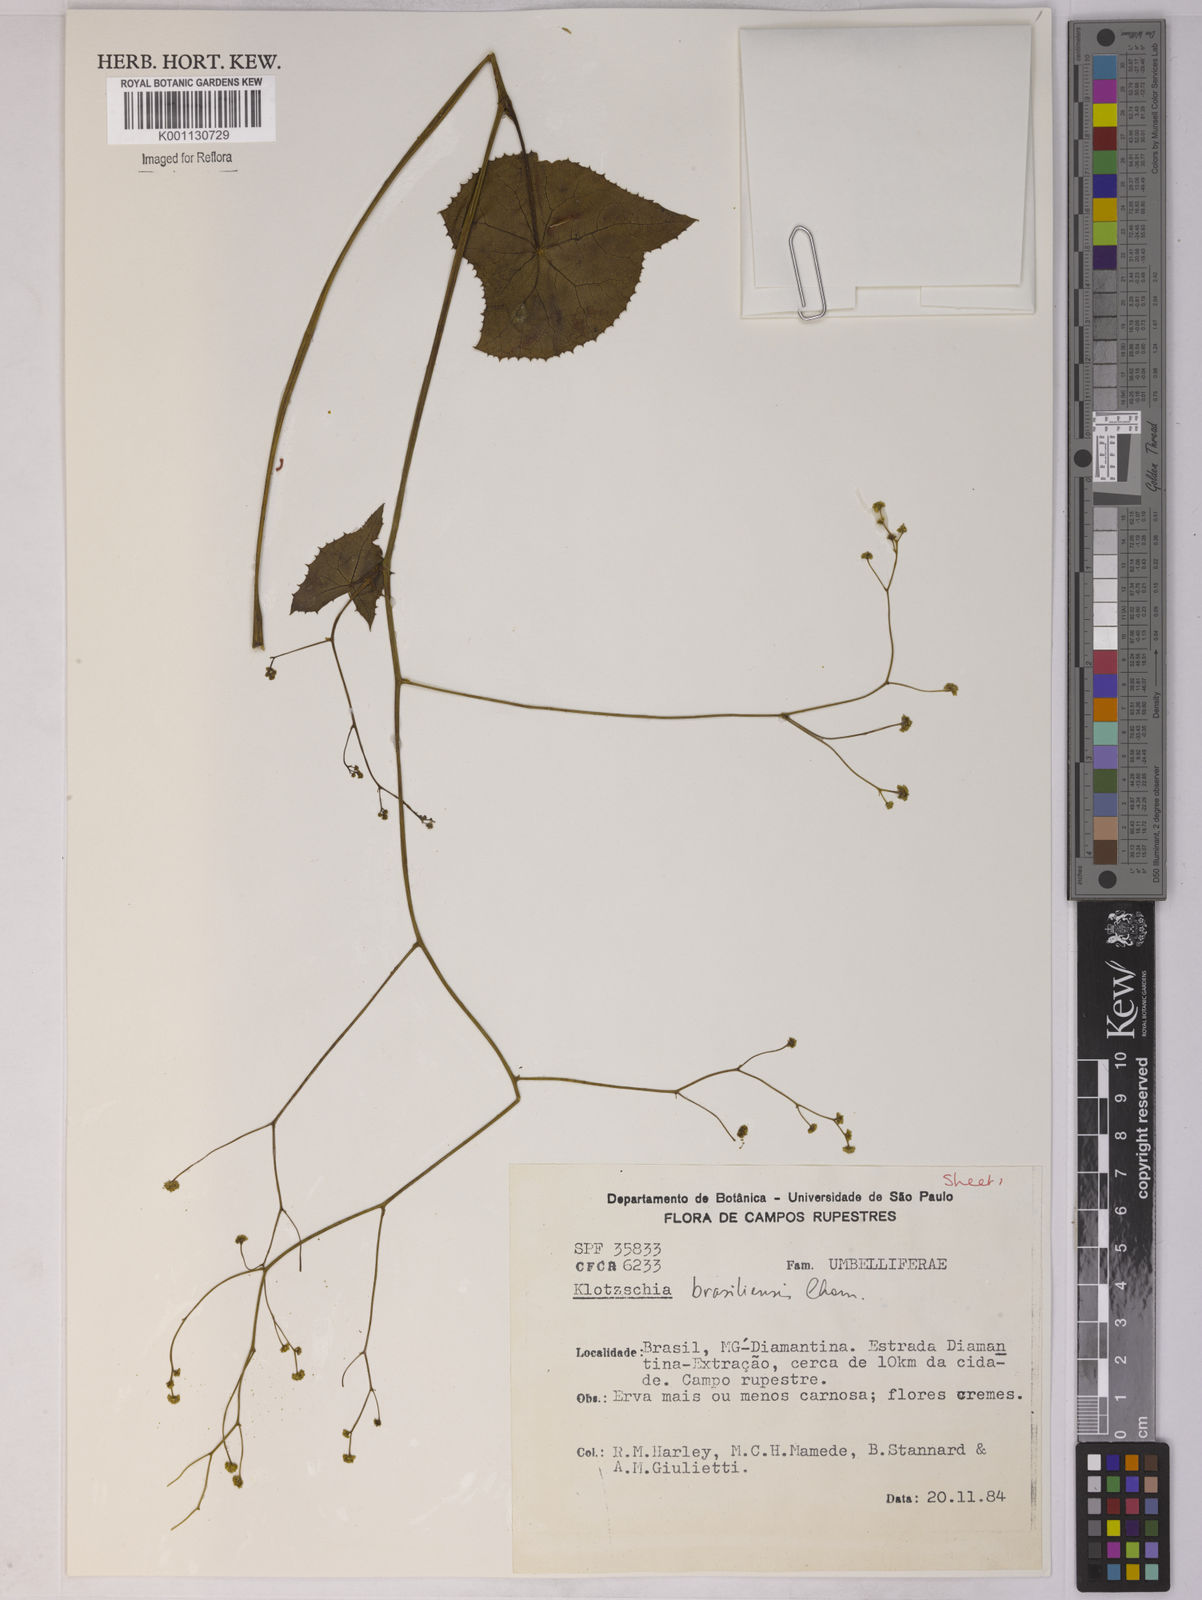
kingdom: Plantae
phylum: Tracheophyta
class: Magnoliopsida
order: Apiales
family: Apiaceae
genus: Klotzschia
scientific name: Klotzschia brasiliensis
